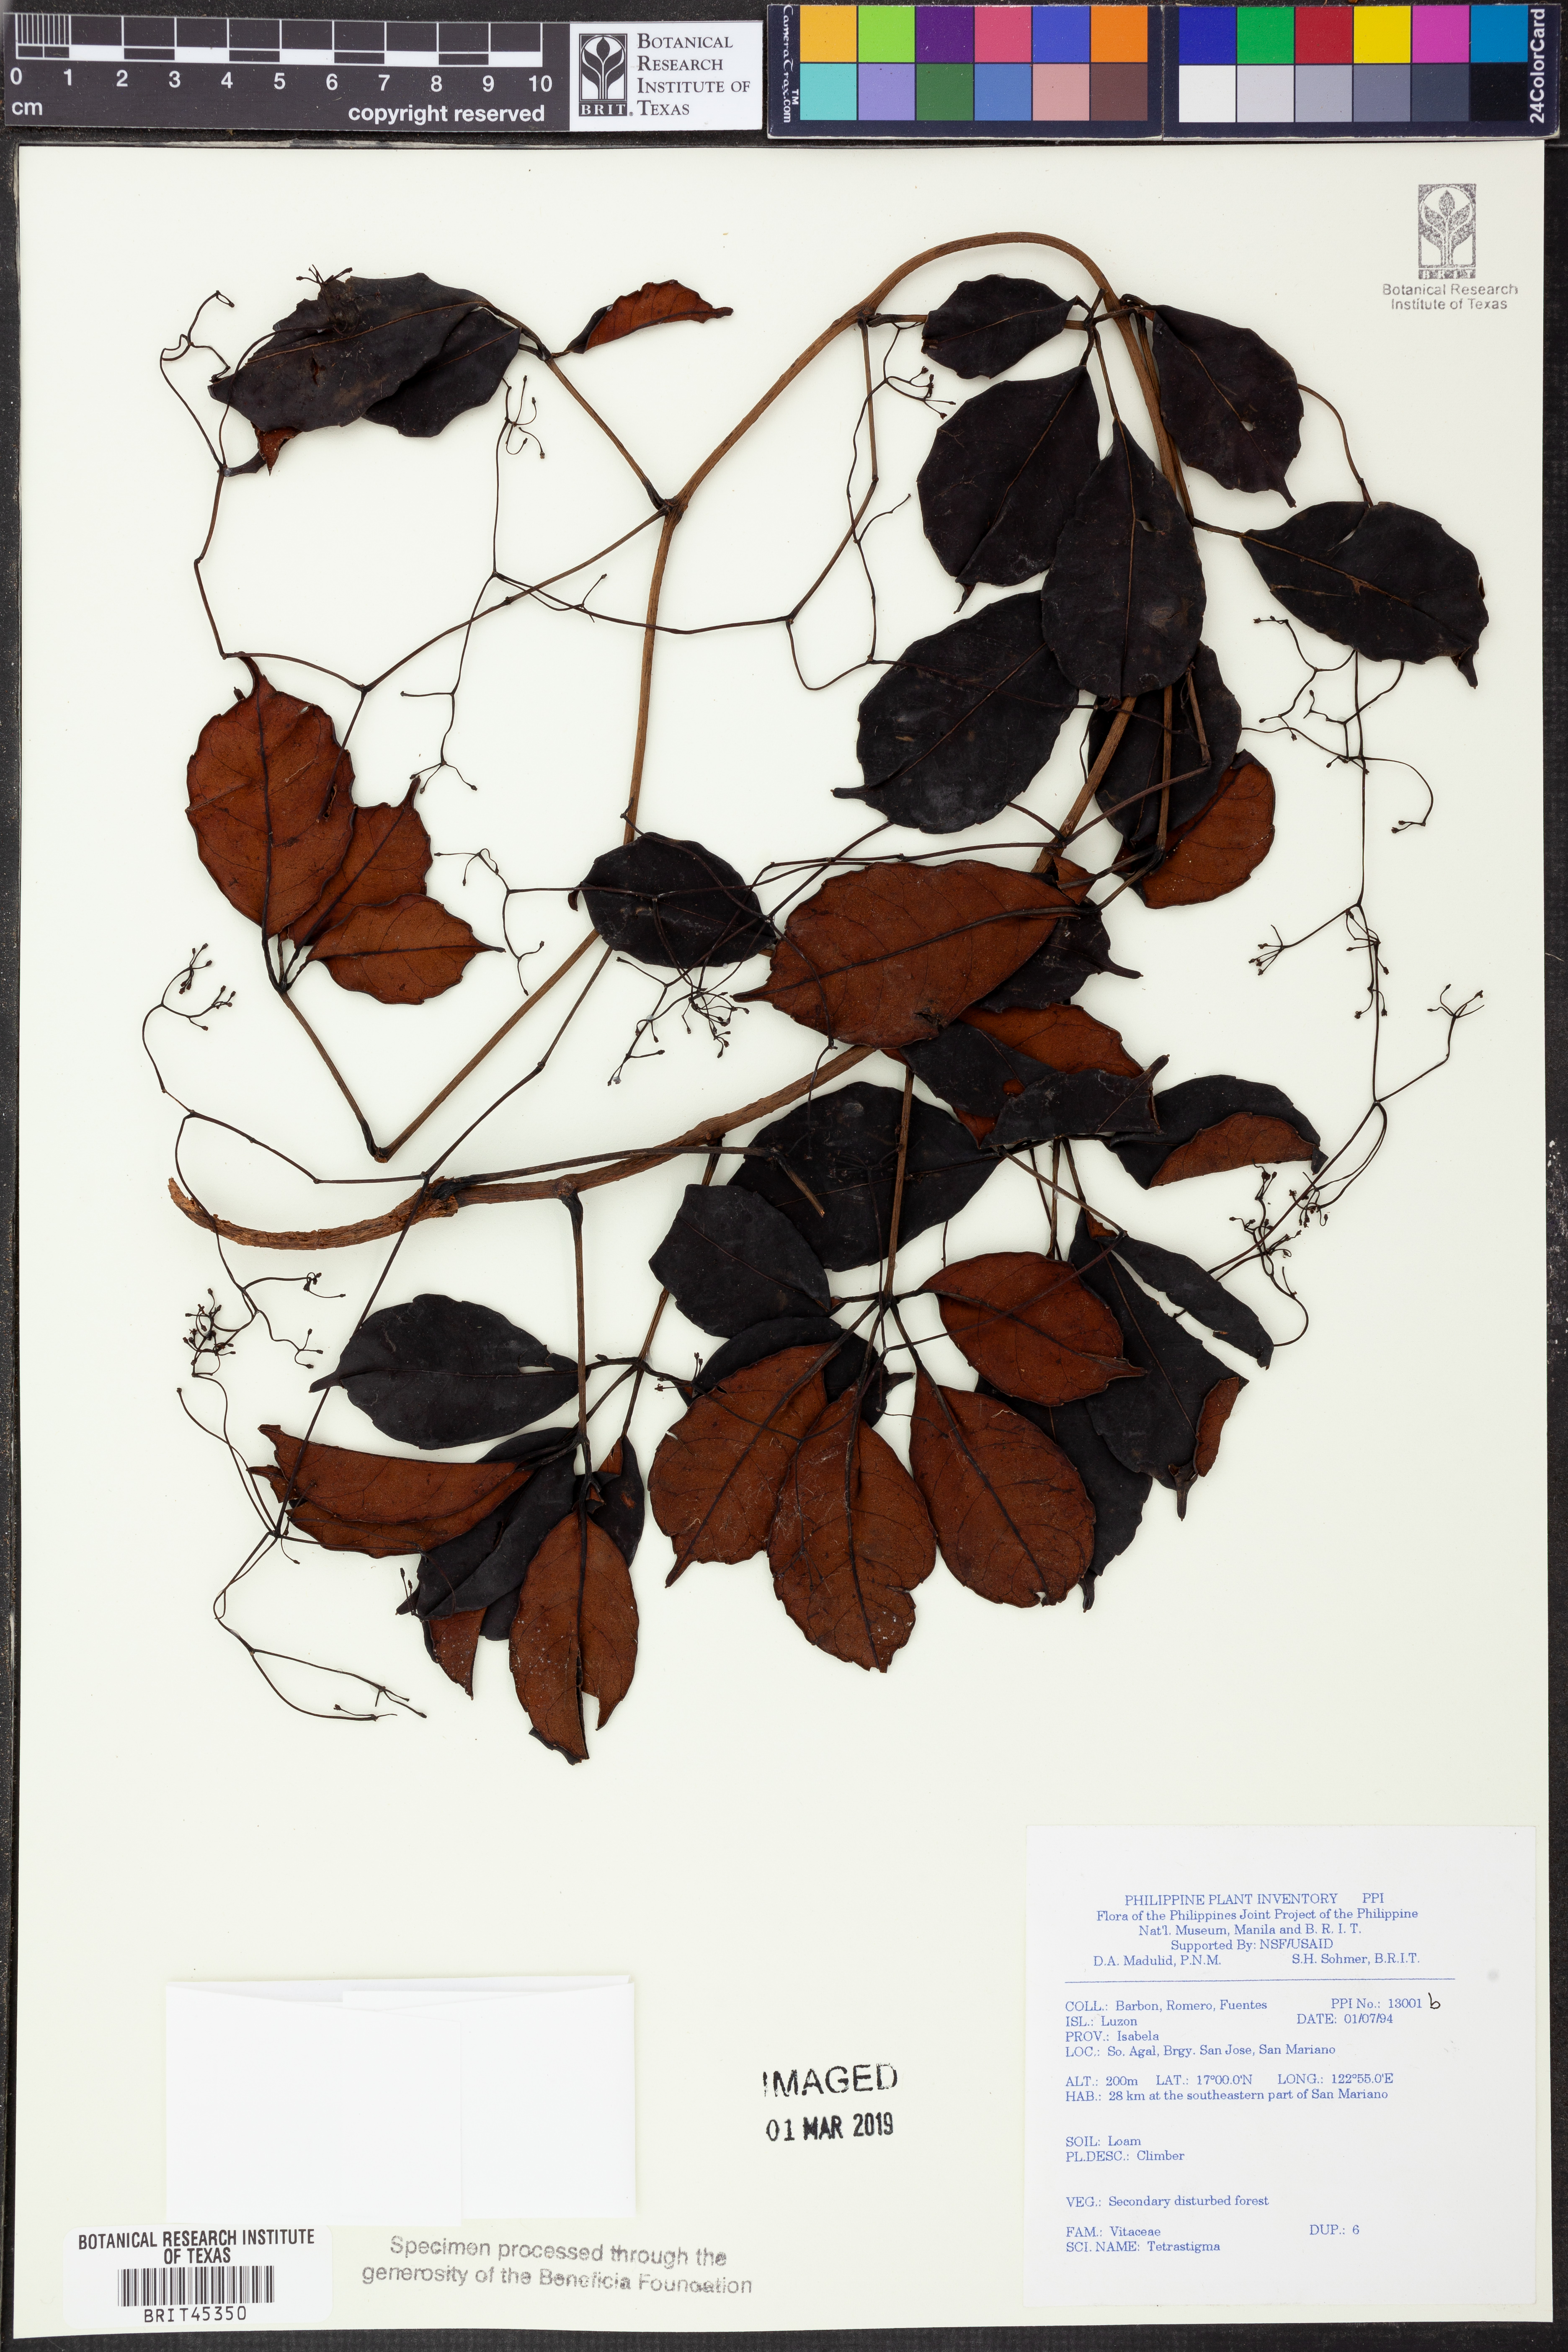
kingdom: Plantae
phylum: Tracheophyta
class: Magnoliopsida
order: Vitales
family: Vitaceae
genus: Tetrastigma
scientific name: Tetrastigma
